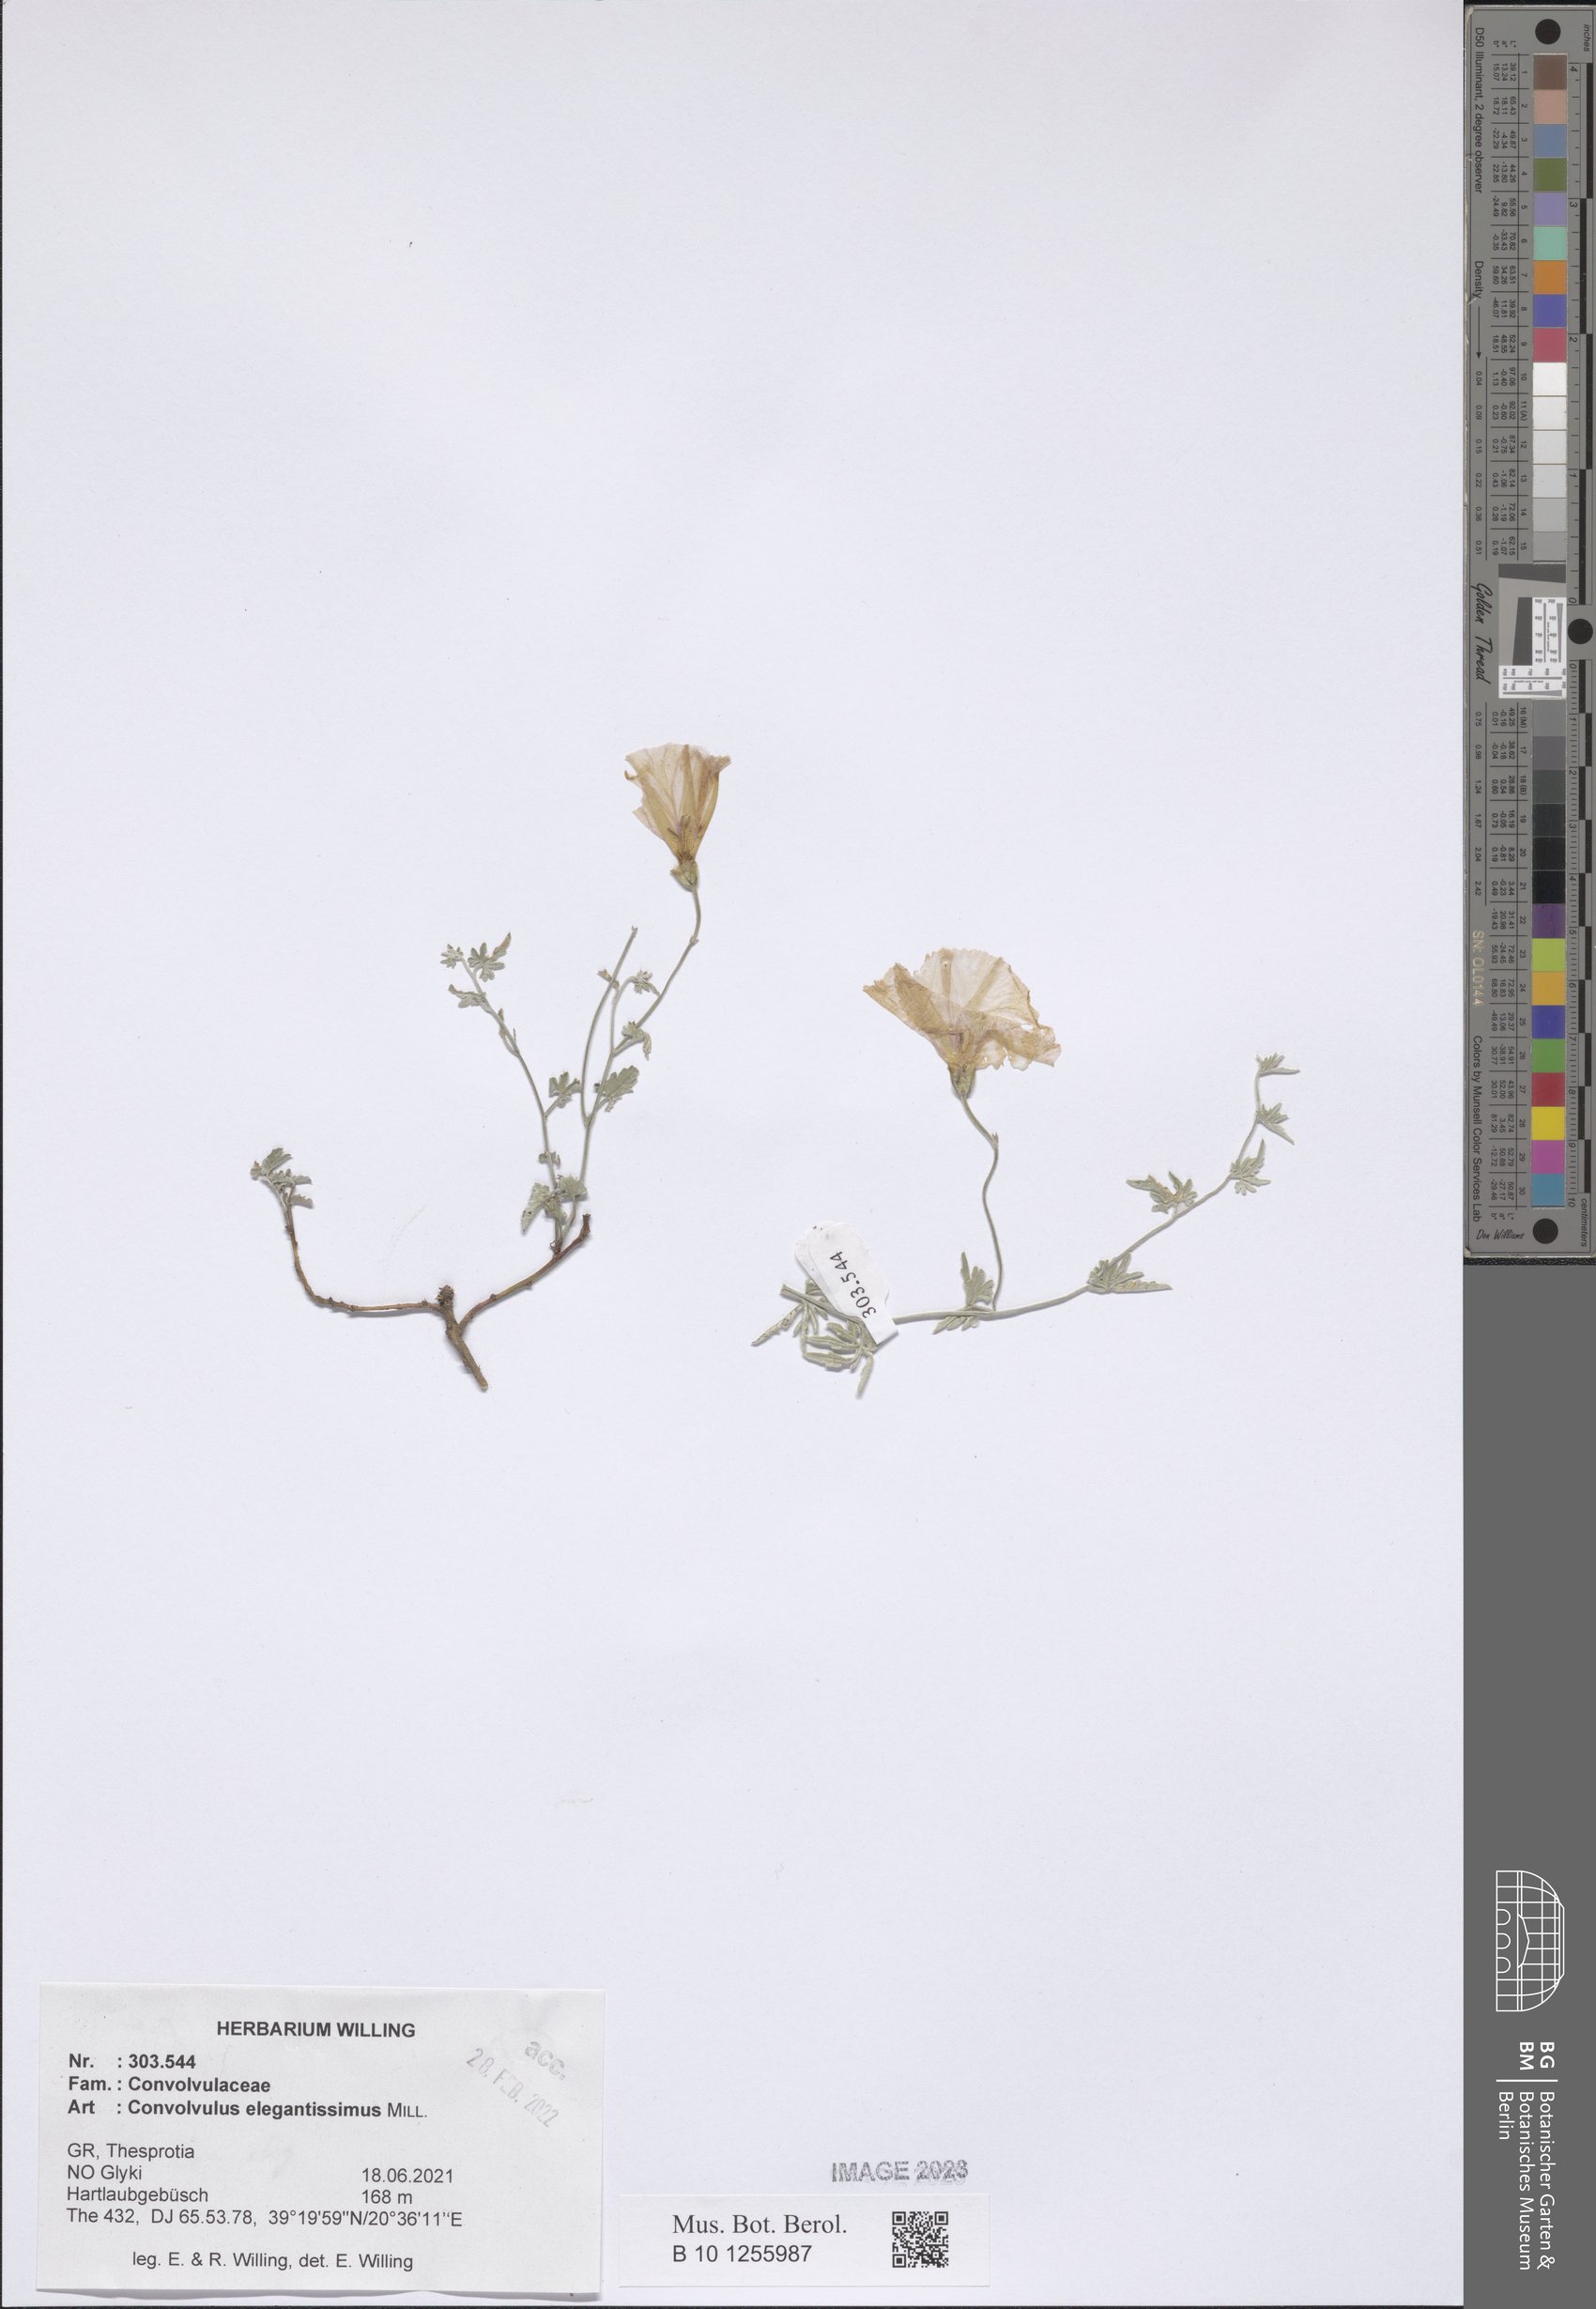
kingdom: Plantae
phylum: Tracheophyta
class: Magnoliopsida
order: Solanales
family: Convolvulaceae
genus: Convolvulus
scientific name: Convolvulus elegantissimus
